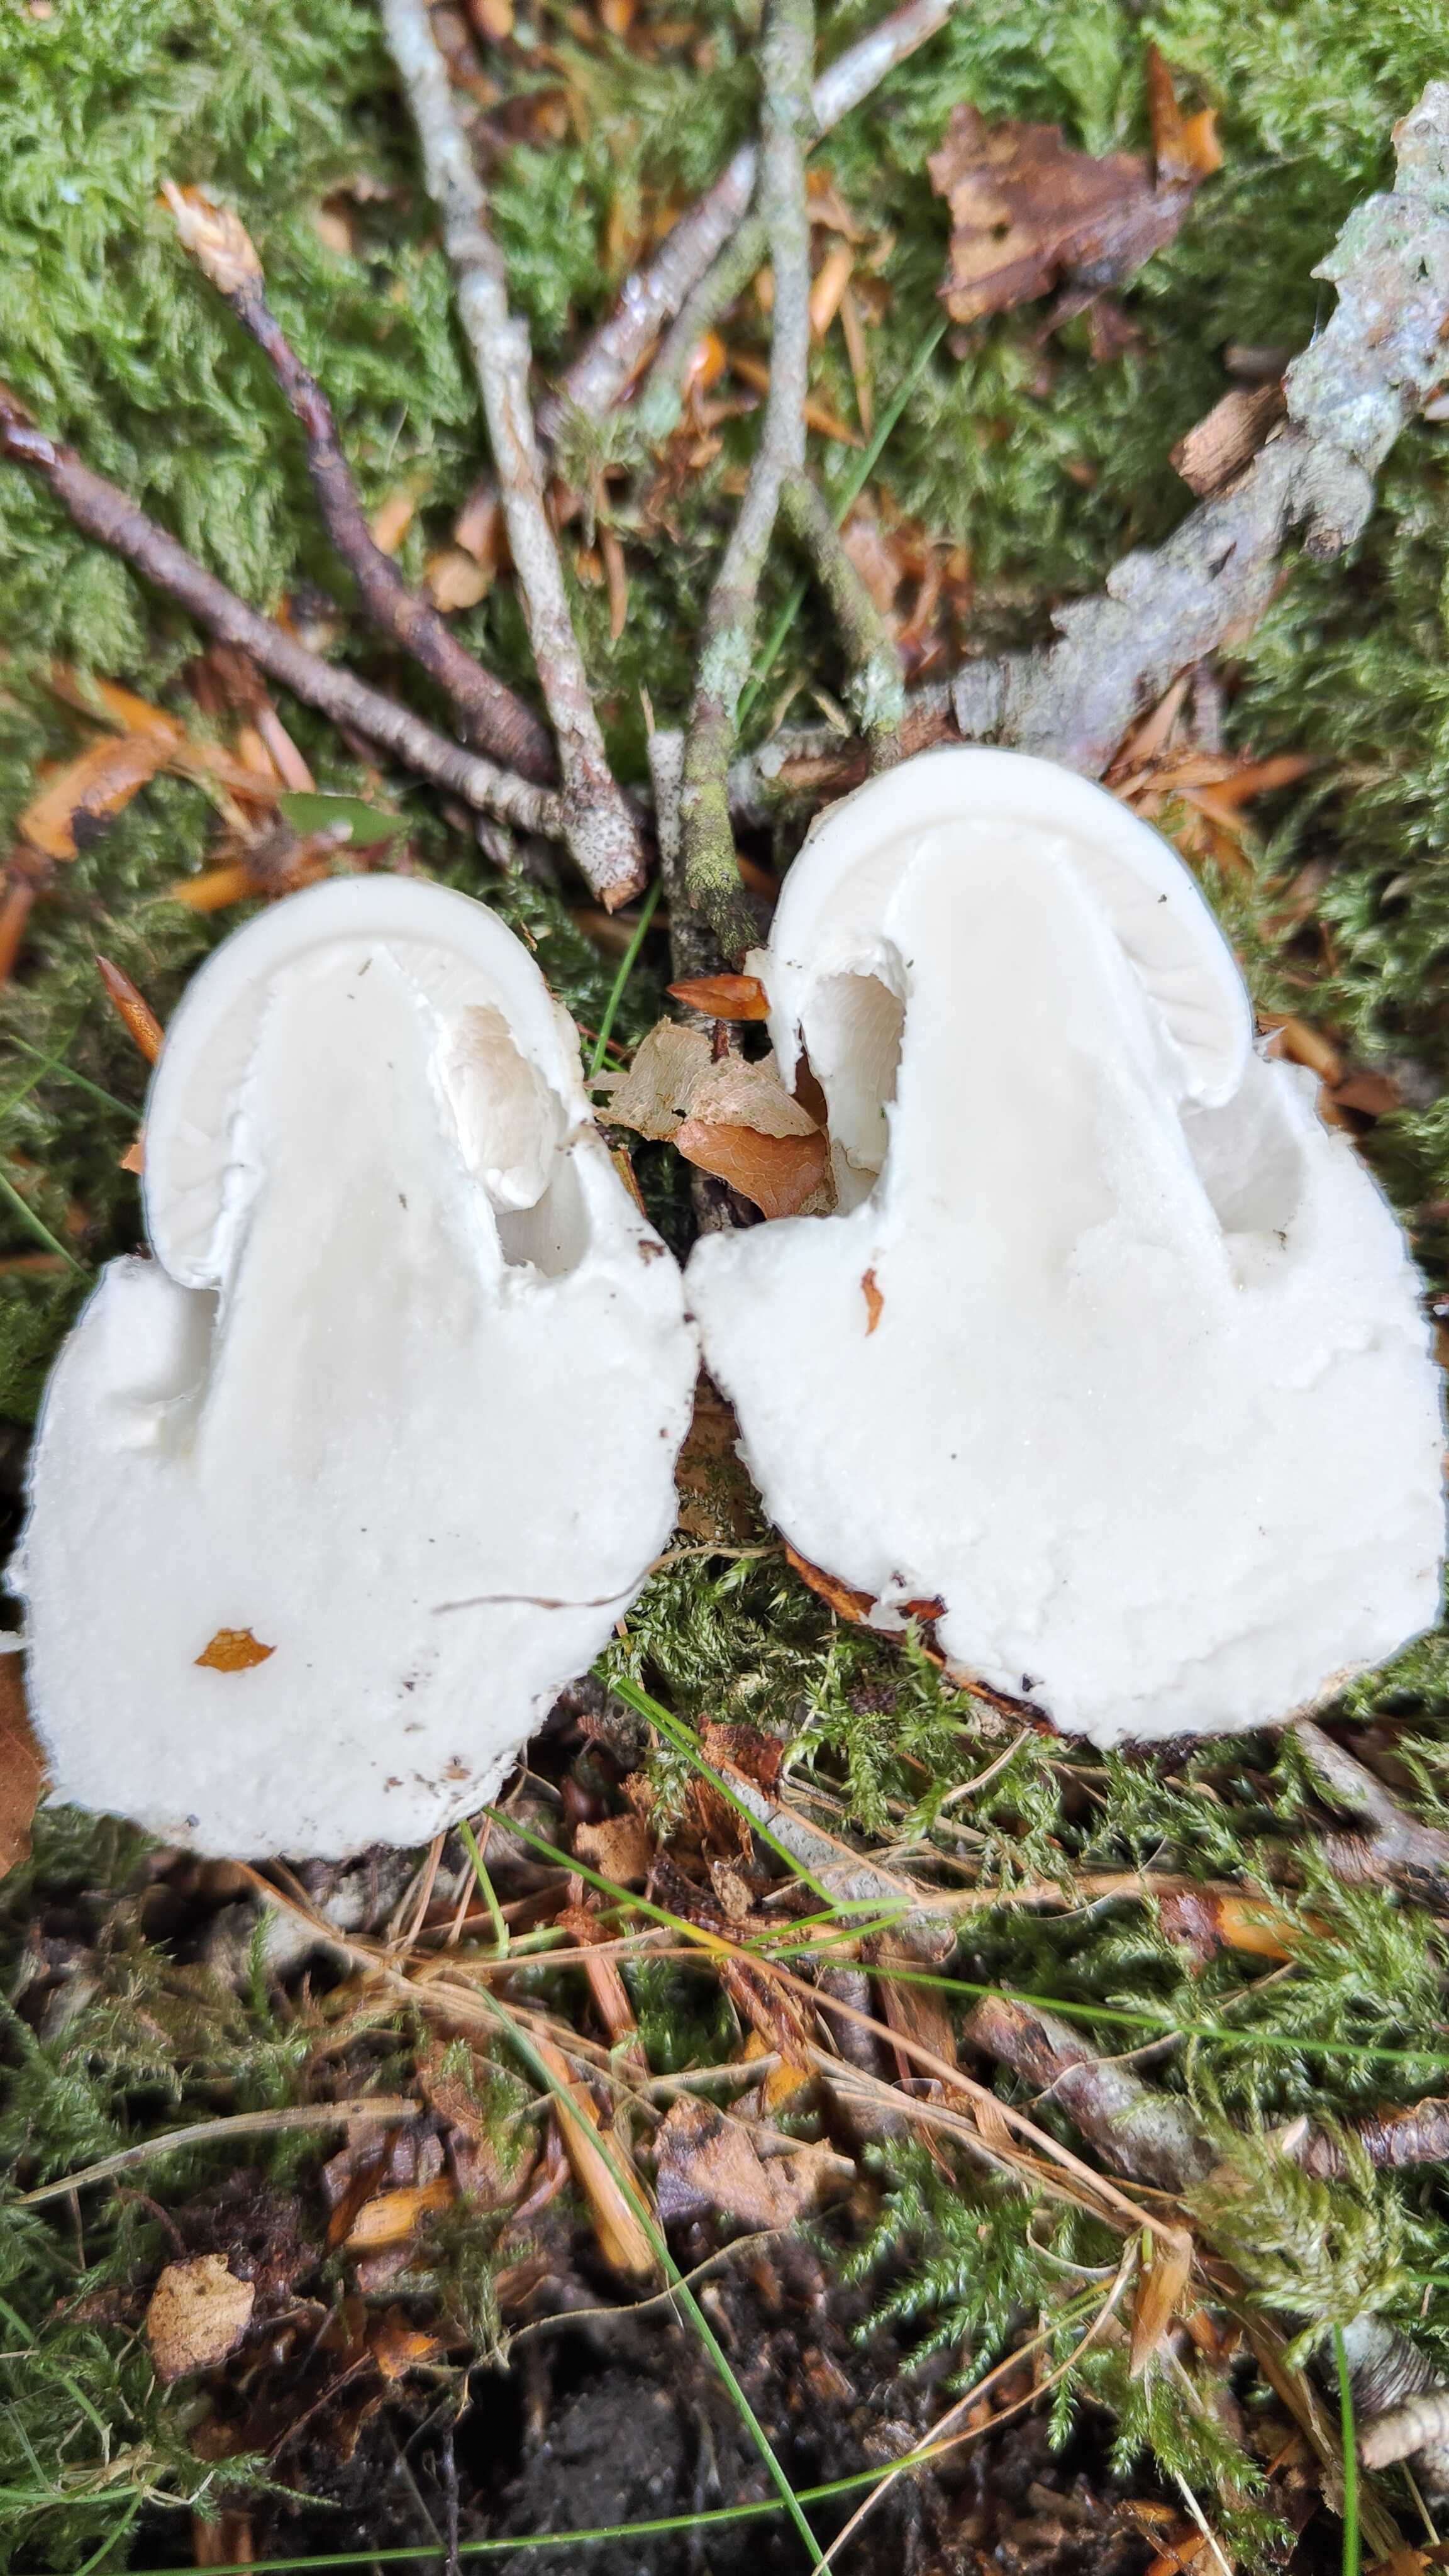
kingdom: Fungi
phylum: Basidiomycota
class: Agaricomycetes
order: Agaricales
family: Amanitaceae
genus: Amanita
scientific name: Amanita
